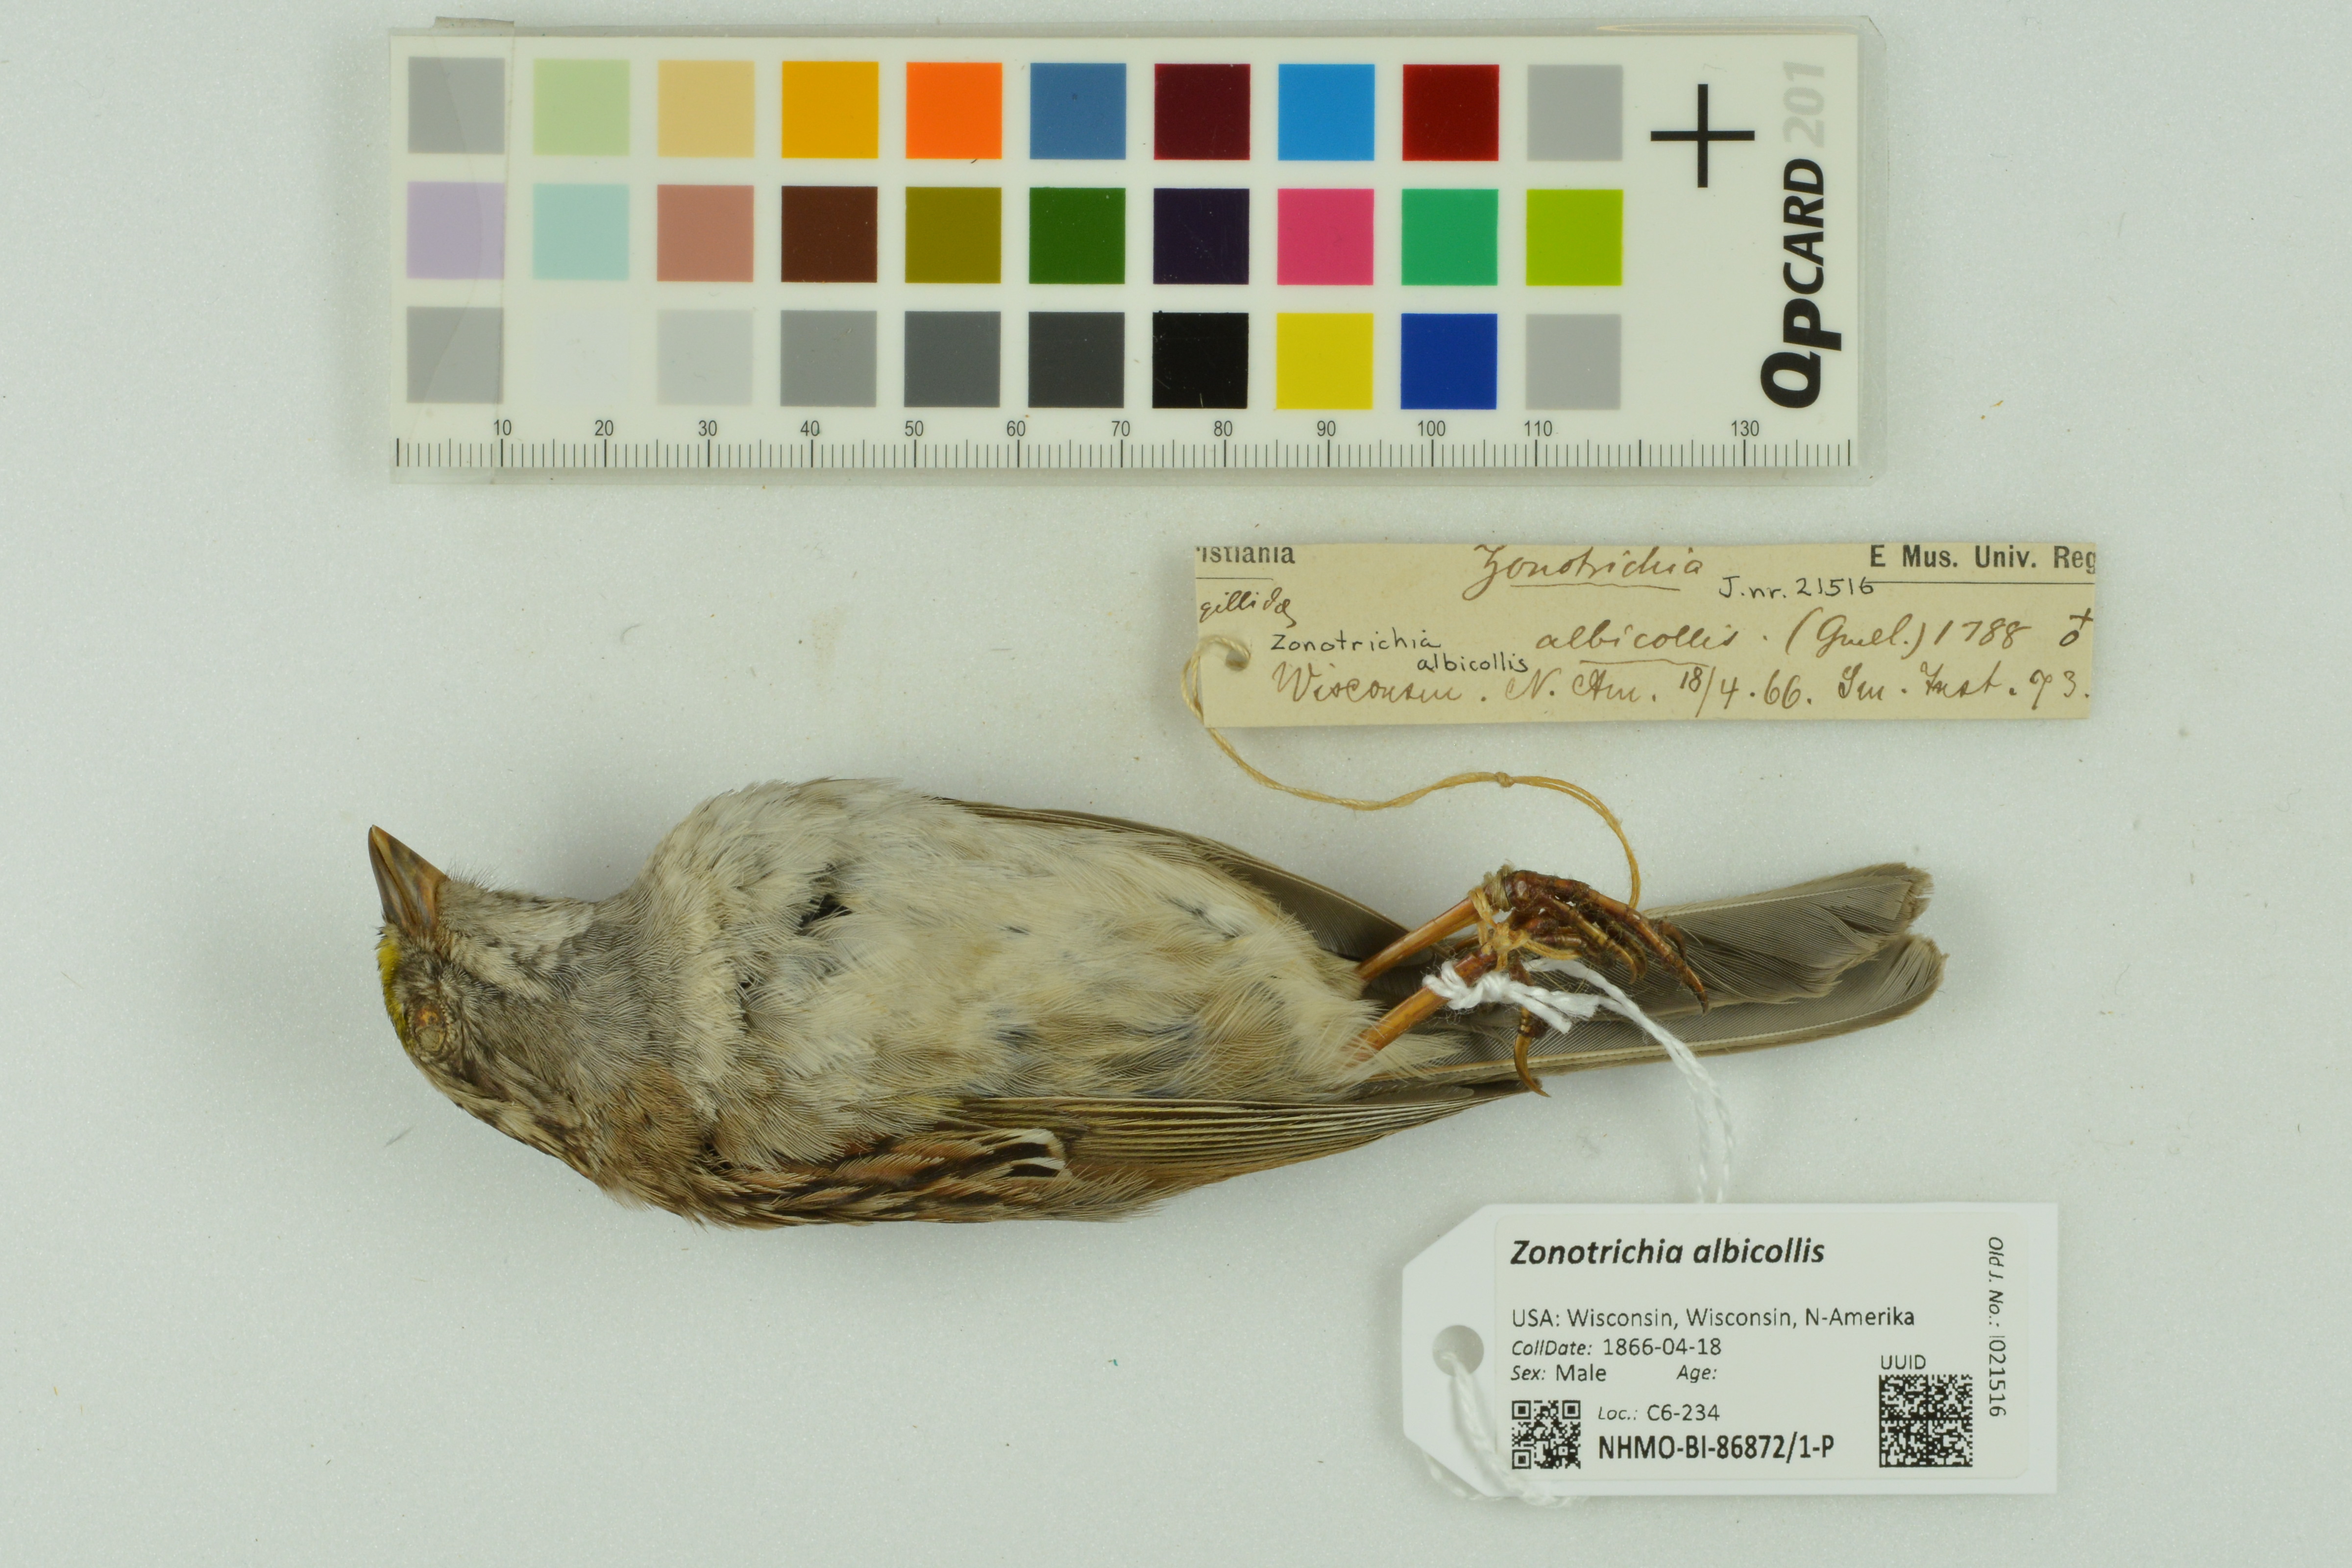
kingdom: Animalia
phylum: Chordata
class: Aves
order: Passeriformes
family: Passerellidae
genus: Zonotrichia
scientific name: Zonotrichia albicollis
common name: White-throated sparrow
